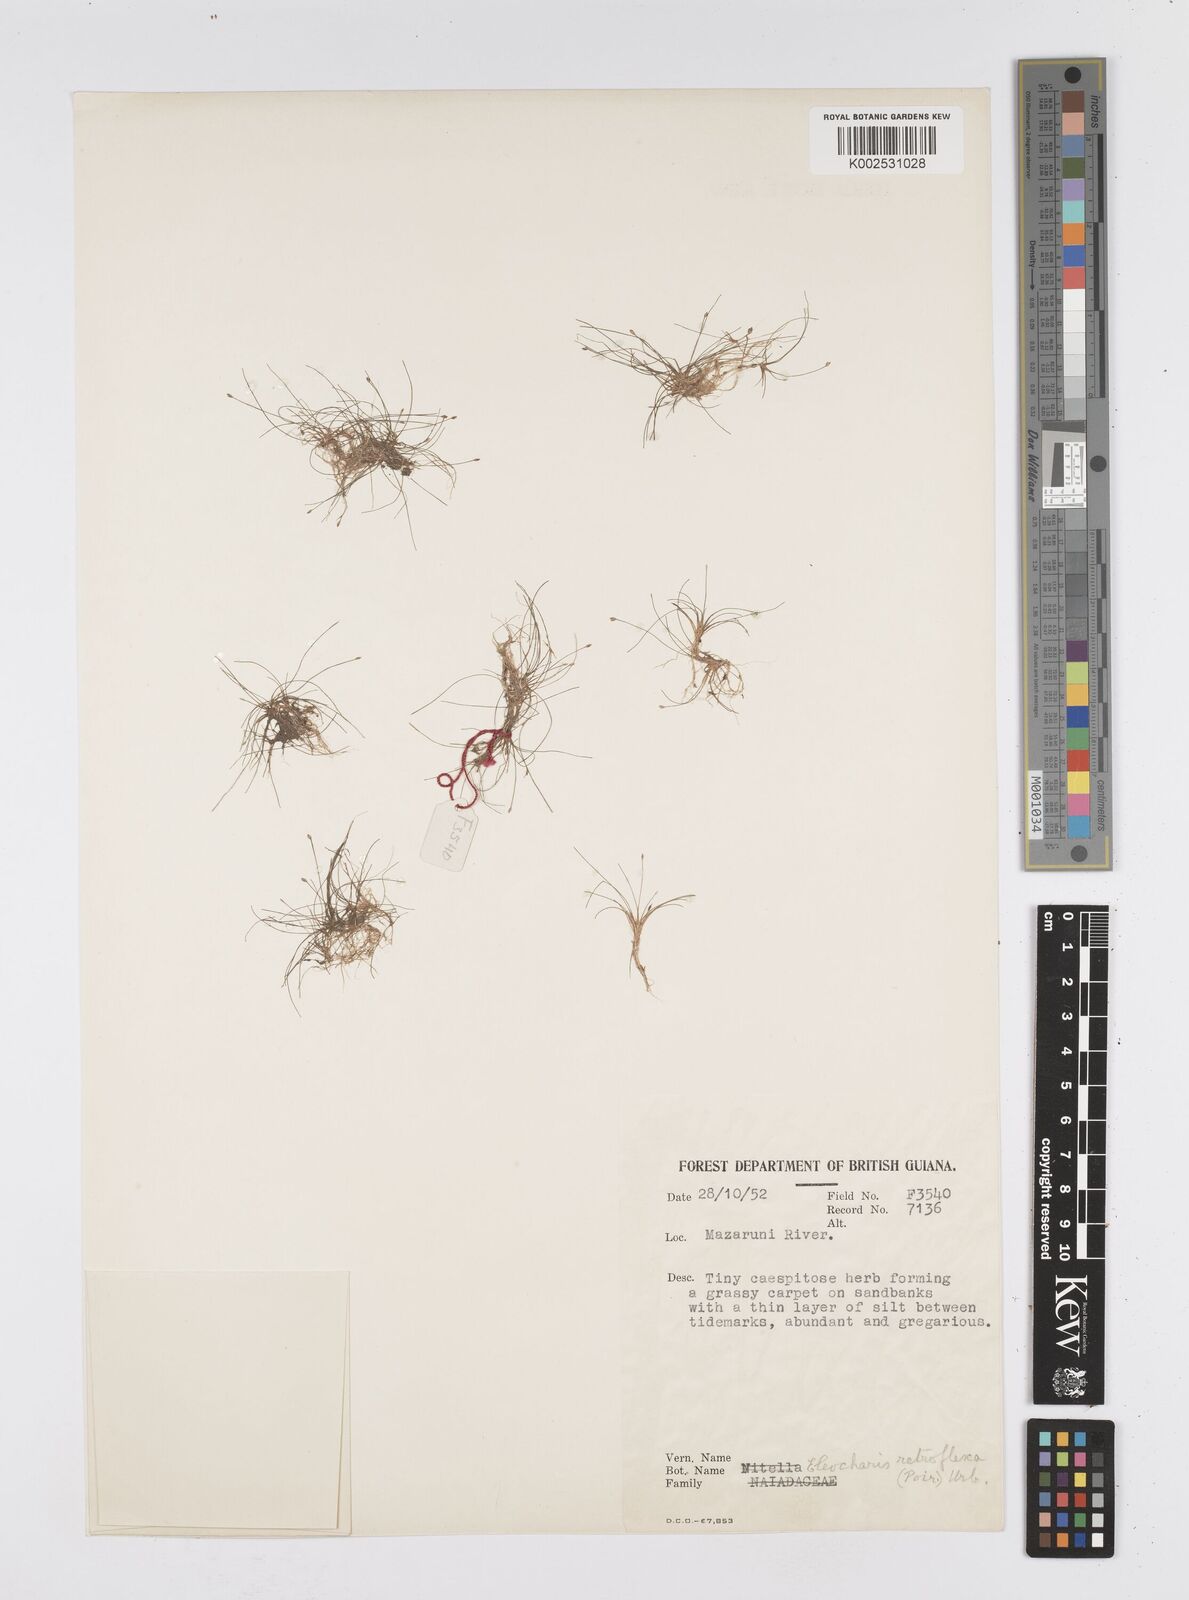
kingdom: Plantae
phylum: Tracheophyta
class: Liliopsida
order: Poales
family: Cyperaceae
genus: Eleocharis
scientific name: Eleocharis retroflexa
